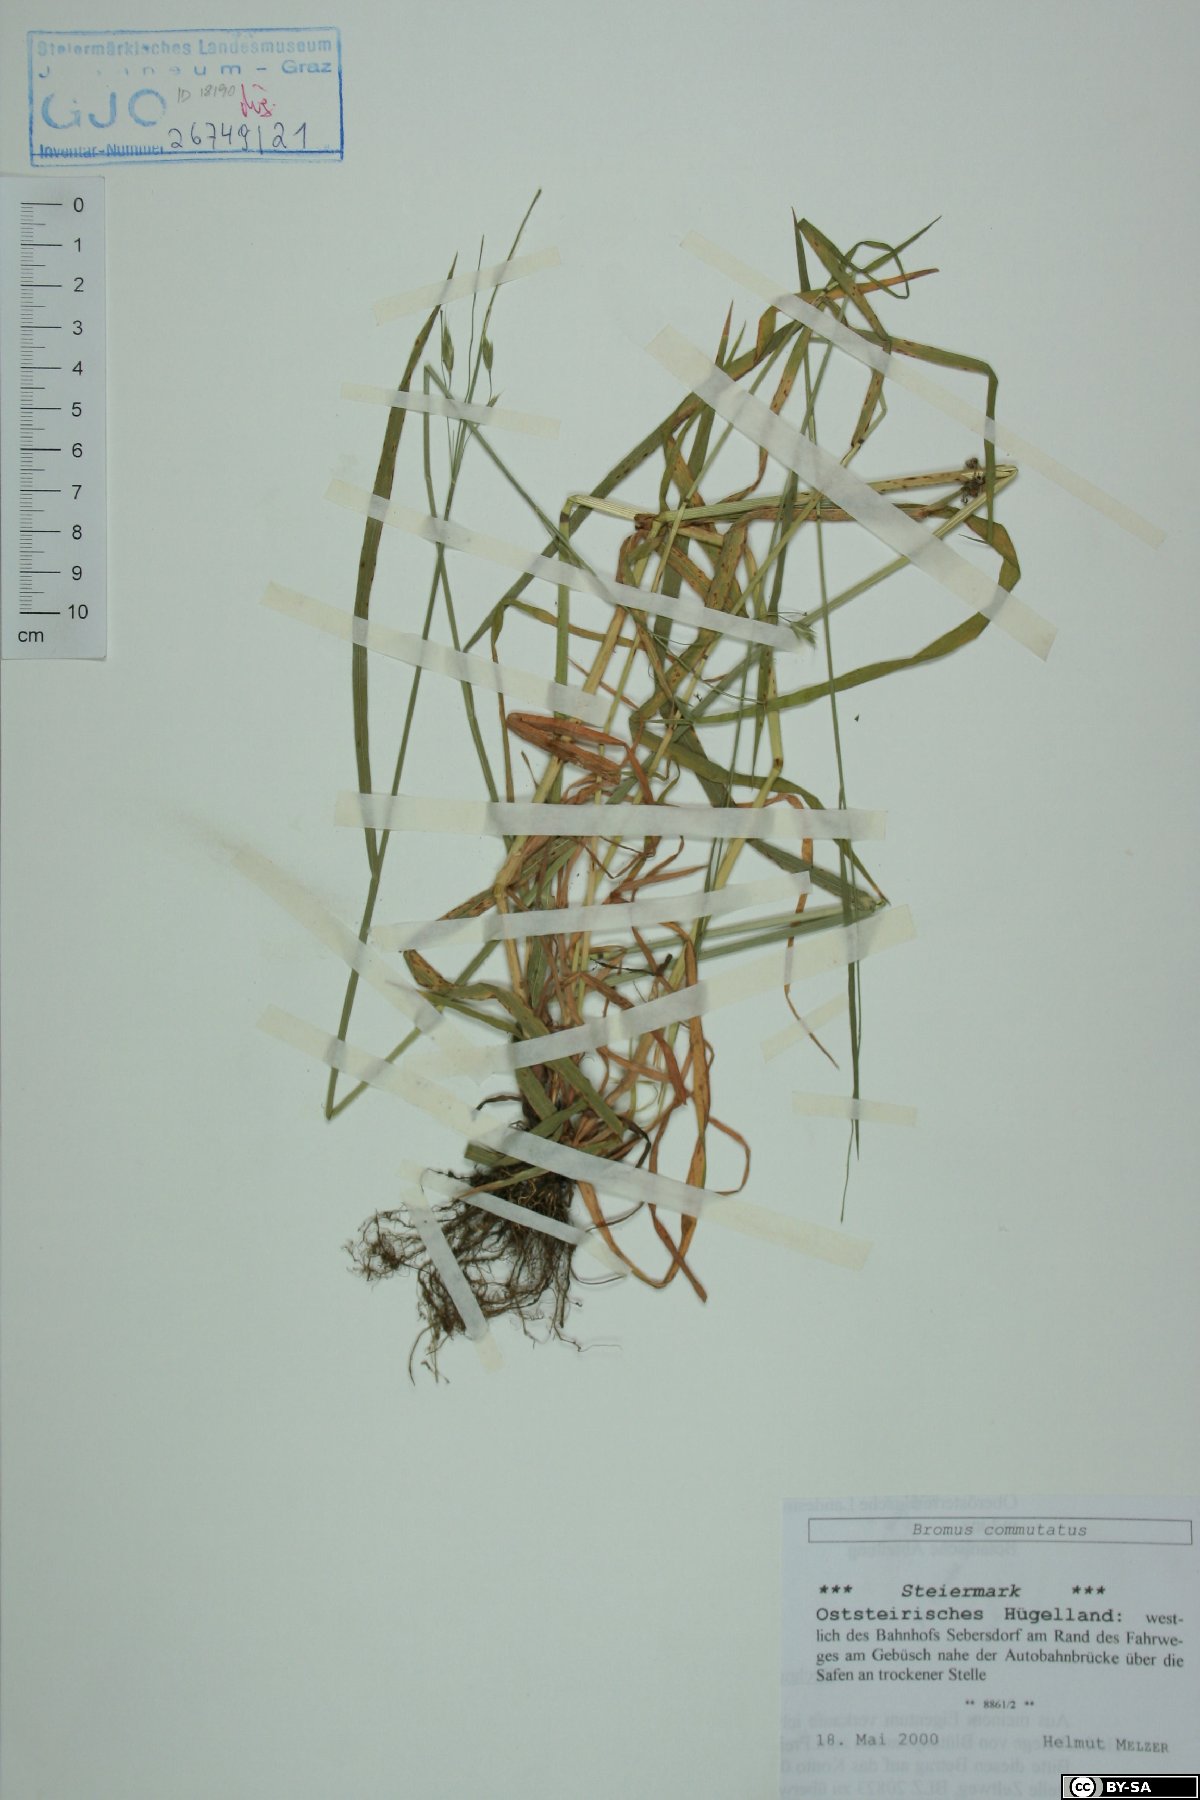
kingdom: Plantae
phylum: Tracheophyta
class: Liliopsida
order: Poales
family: Poaceae
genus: Bromus
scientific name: Bromus commutatus
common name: Meadow brome
